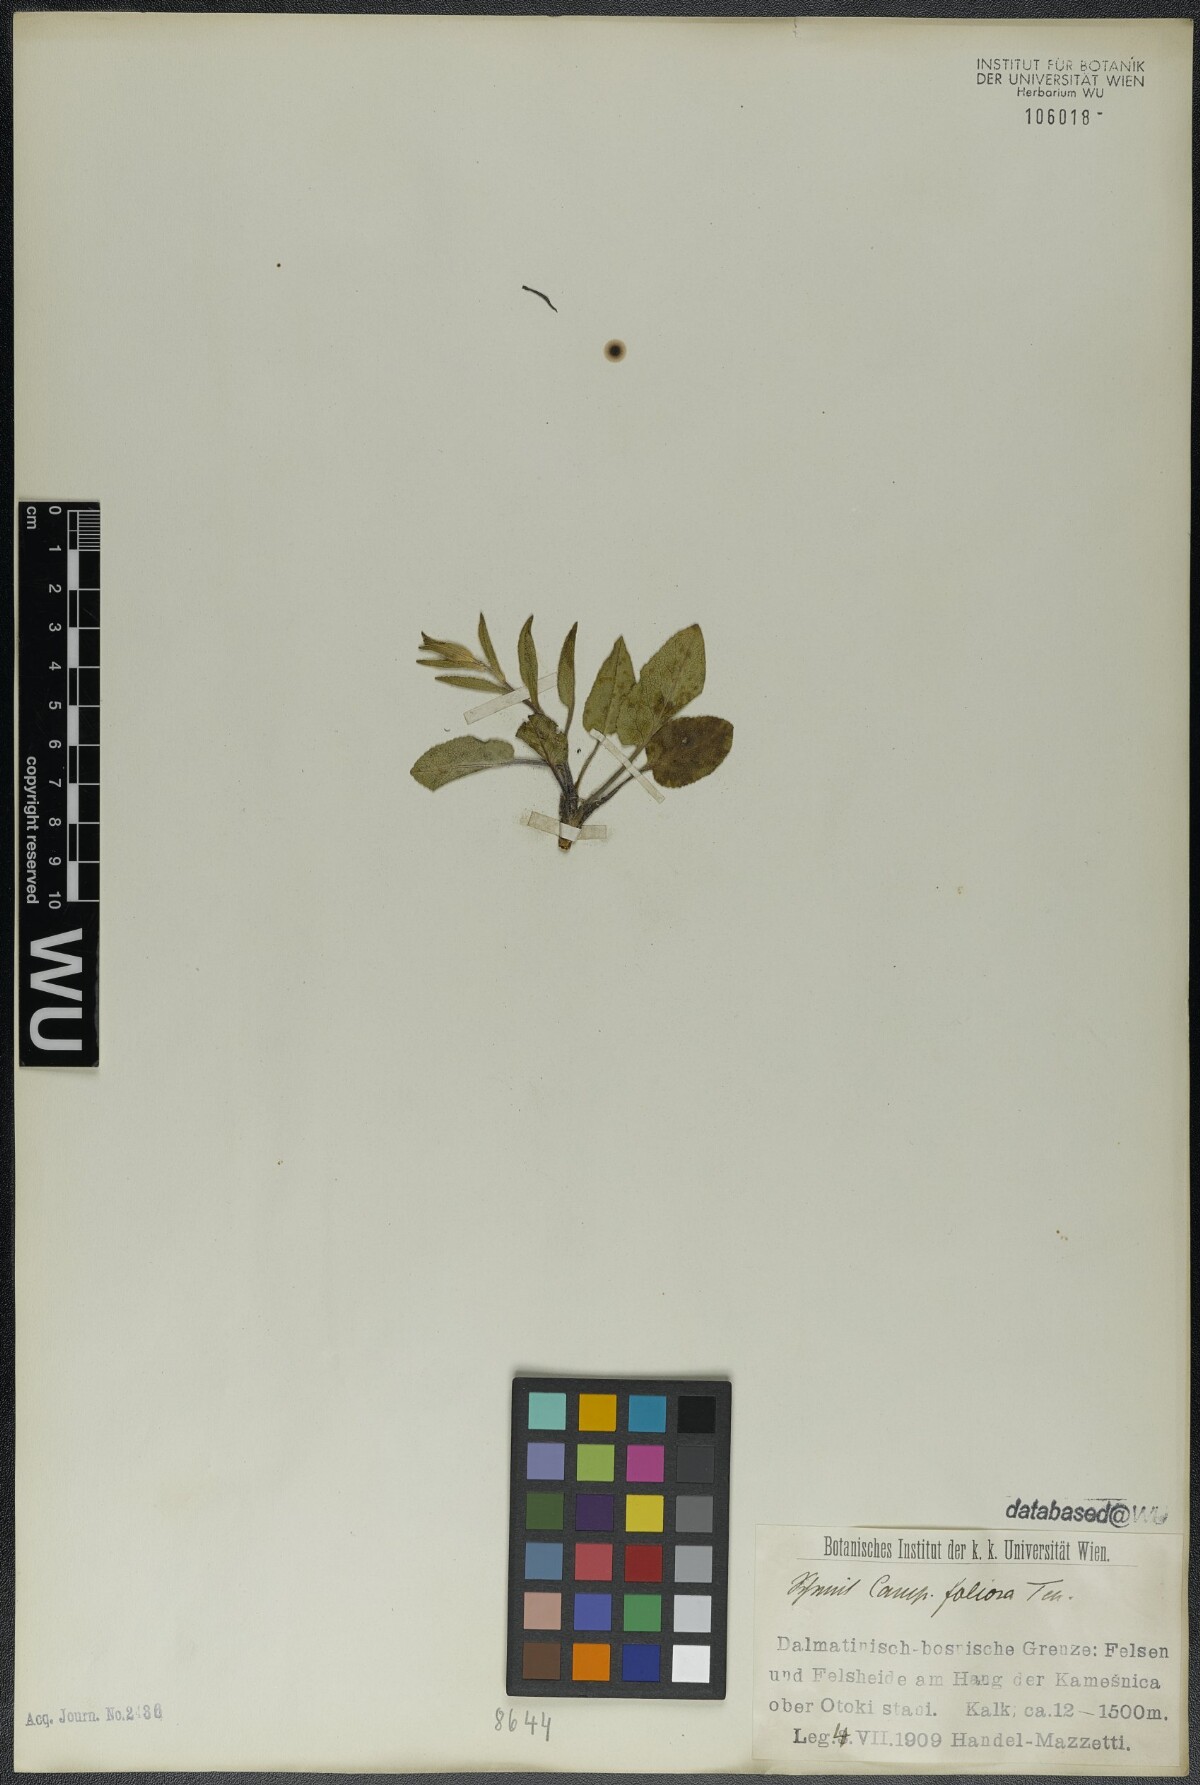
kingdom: Plantae
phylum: Tracheophyta
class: Magnoliopsida
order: Asterales
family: Campanulaceae
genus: Campanula
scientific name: Campanula foliosa
